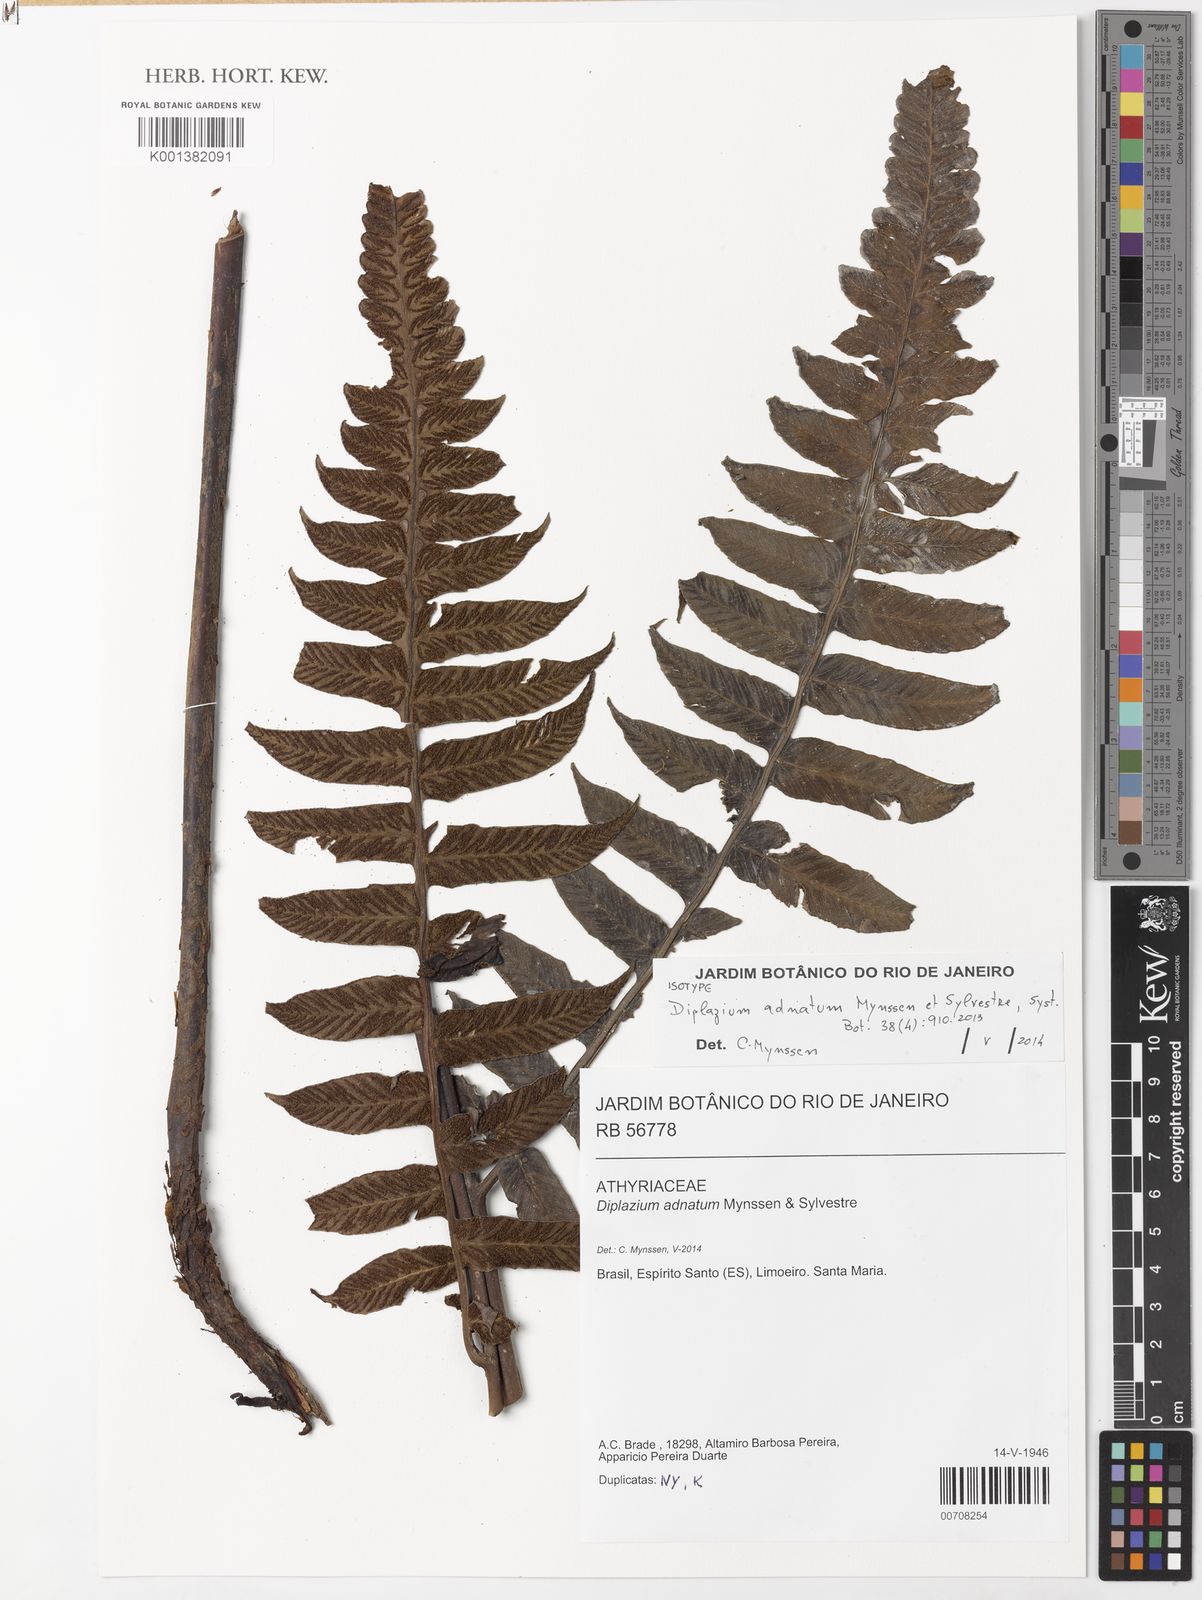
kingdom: Plantae
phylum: Tracheophyta
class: Polypodiopsida
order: Polypodiales
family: Athyriaceae
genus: Diplazium
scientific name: Diplazium adnatum
